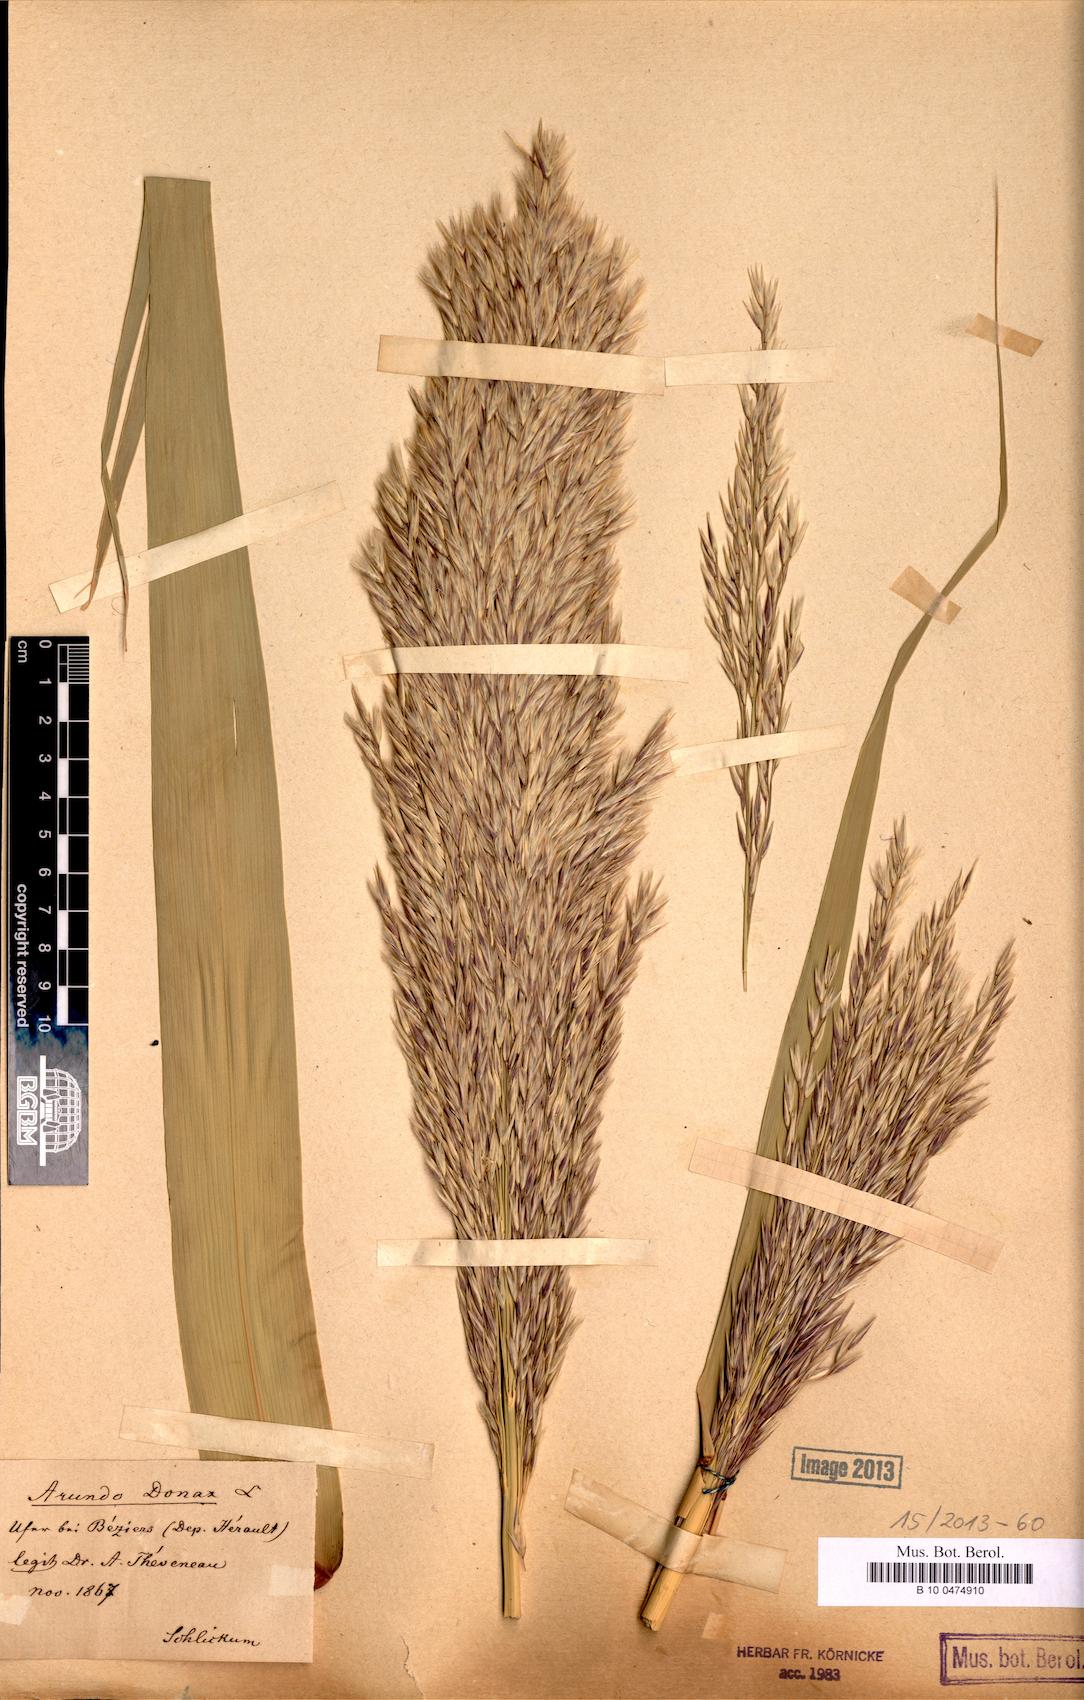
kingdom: Plantae
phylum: Tracheophyta
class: Liliopsida
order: Poales
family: Poaceae
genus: Arundo
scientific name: Arundo donax
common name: Giant reed
